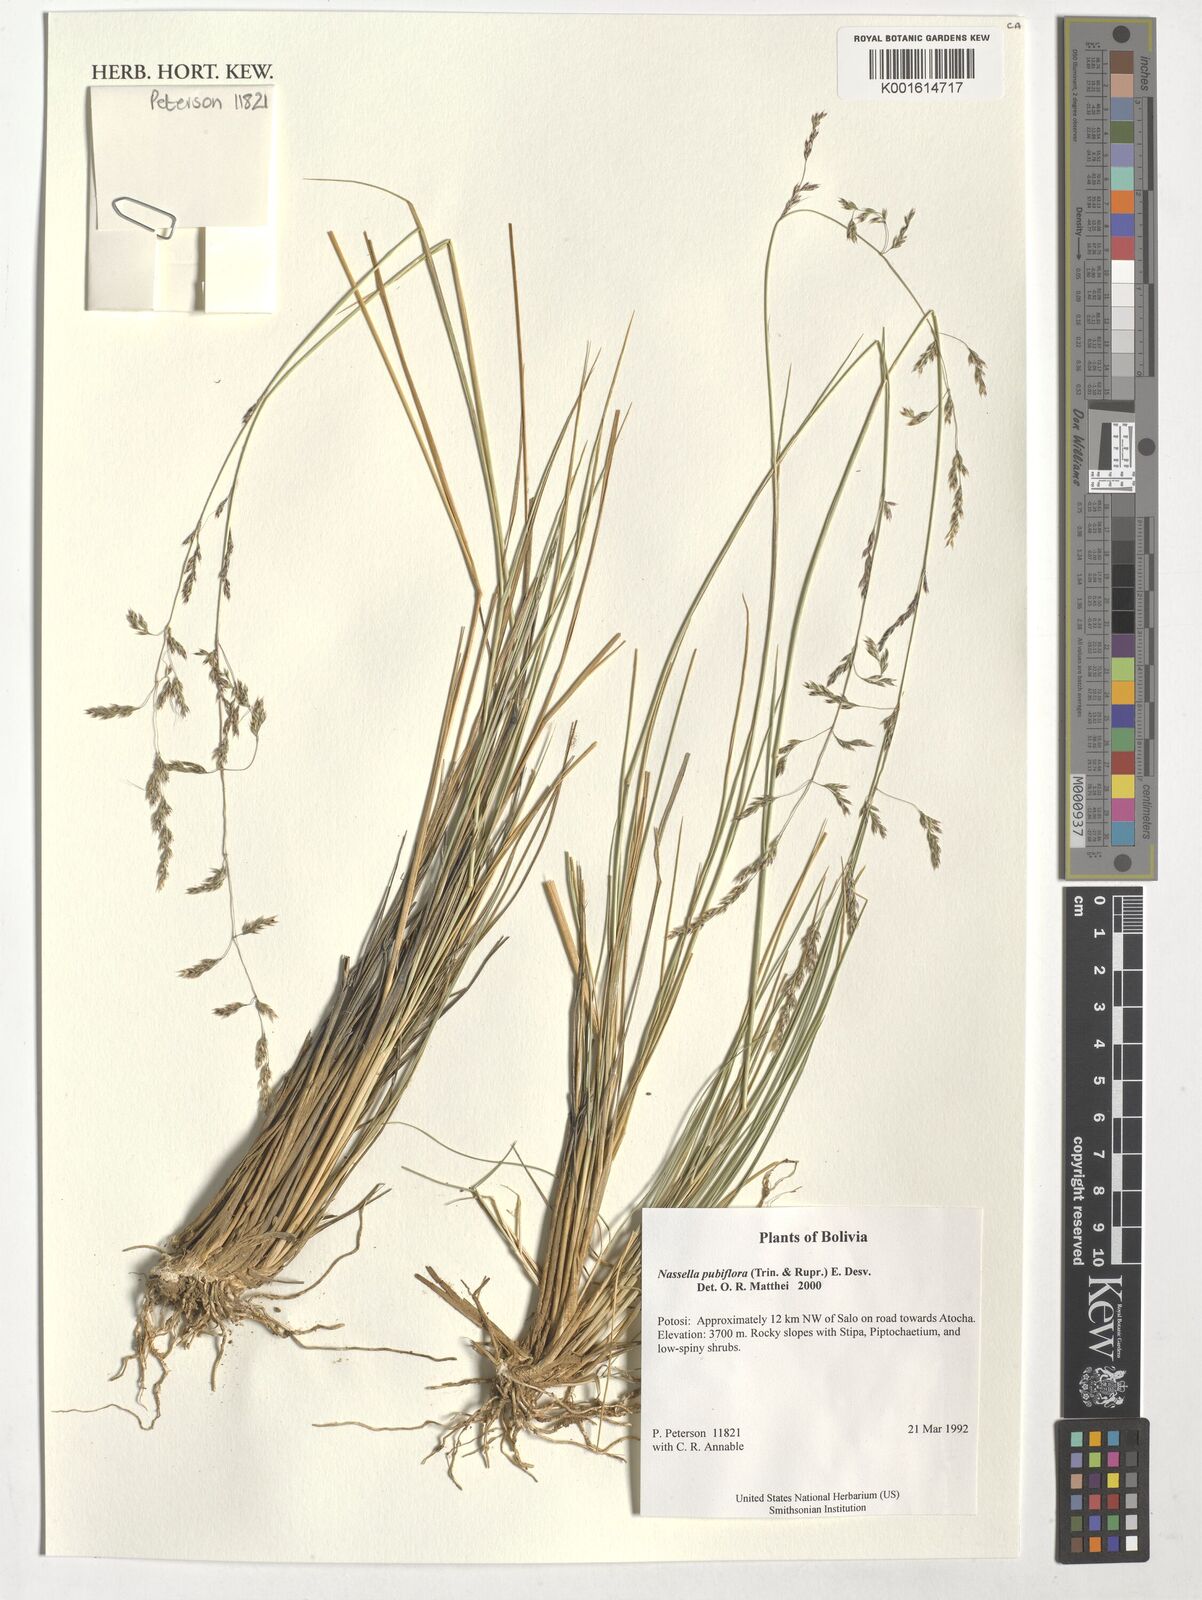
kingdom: Plantae
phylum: Tracheophyta
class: Liliopsida
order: Poales
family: Poaceae
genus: Nassella
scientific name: Nassella pubiflora
